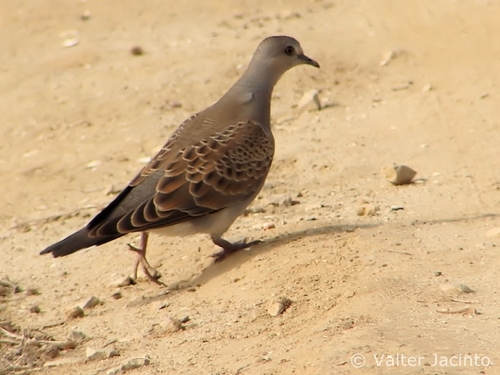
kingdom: Animalia
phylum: Chordata
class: Aves
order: Columbiformes
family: Columbidae
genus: Streptopelia
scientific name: Streptopelia turtur
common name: European turtle dove
